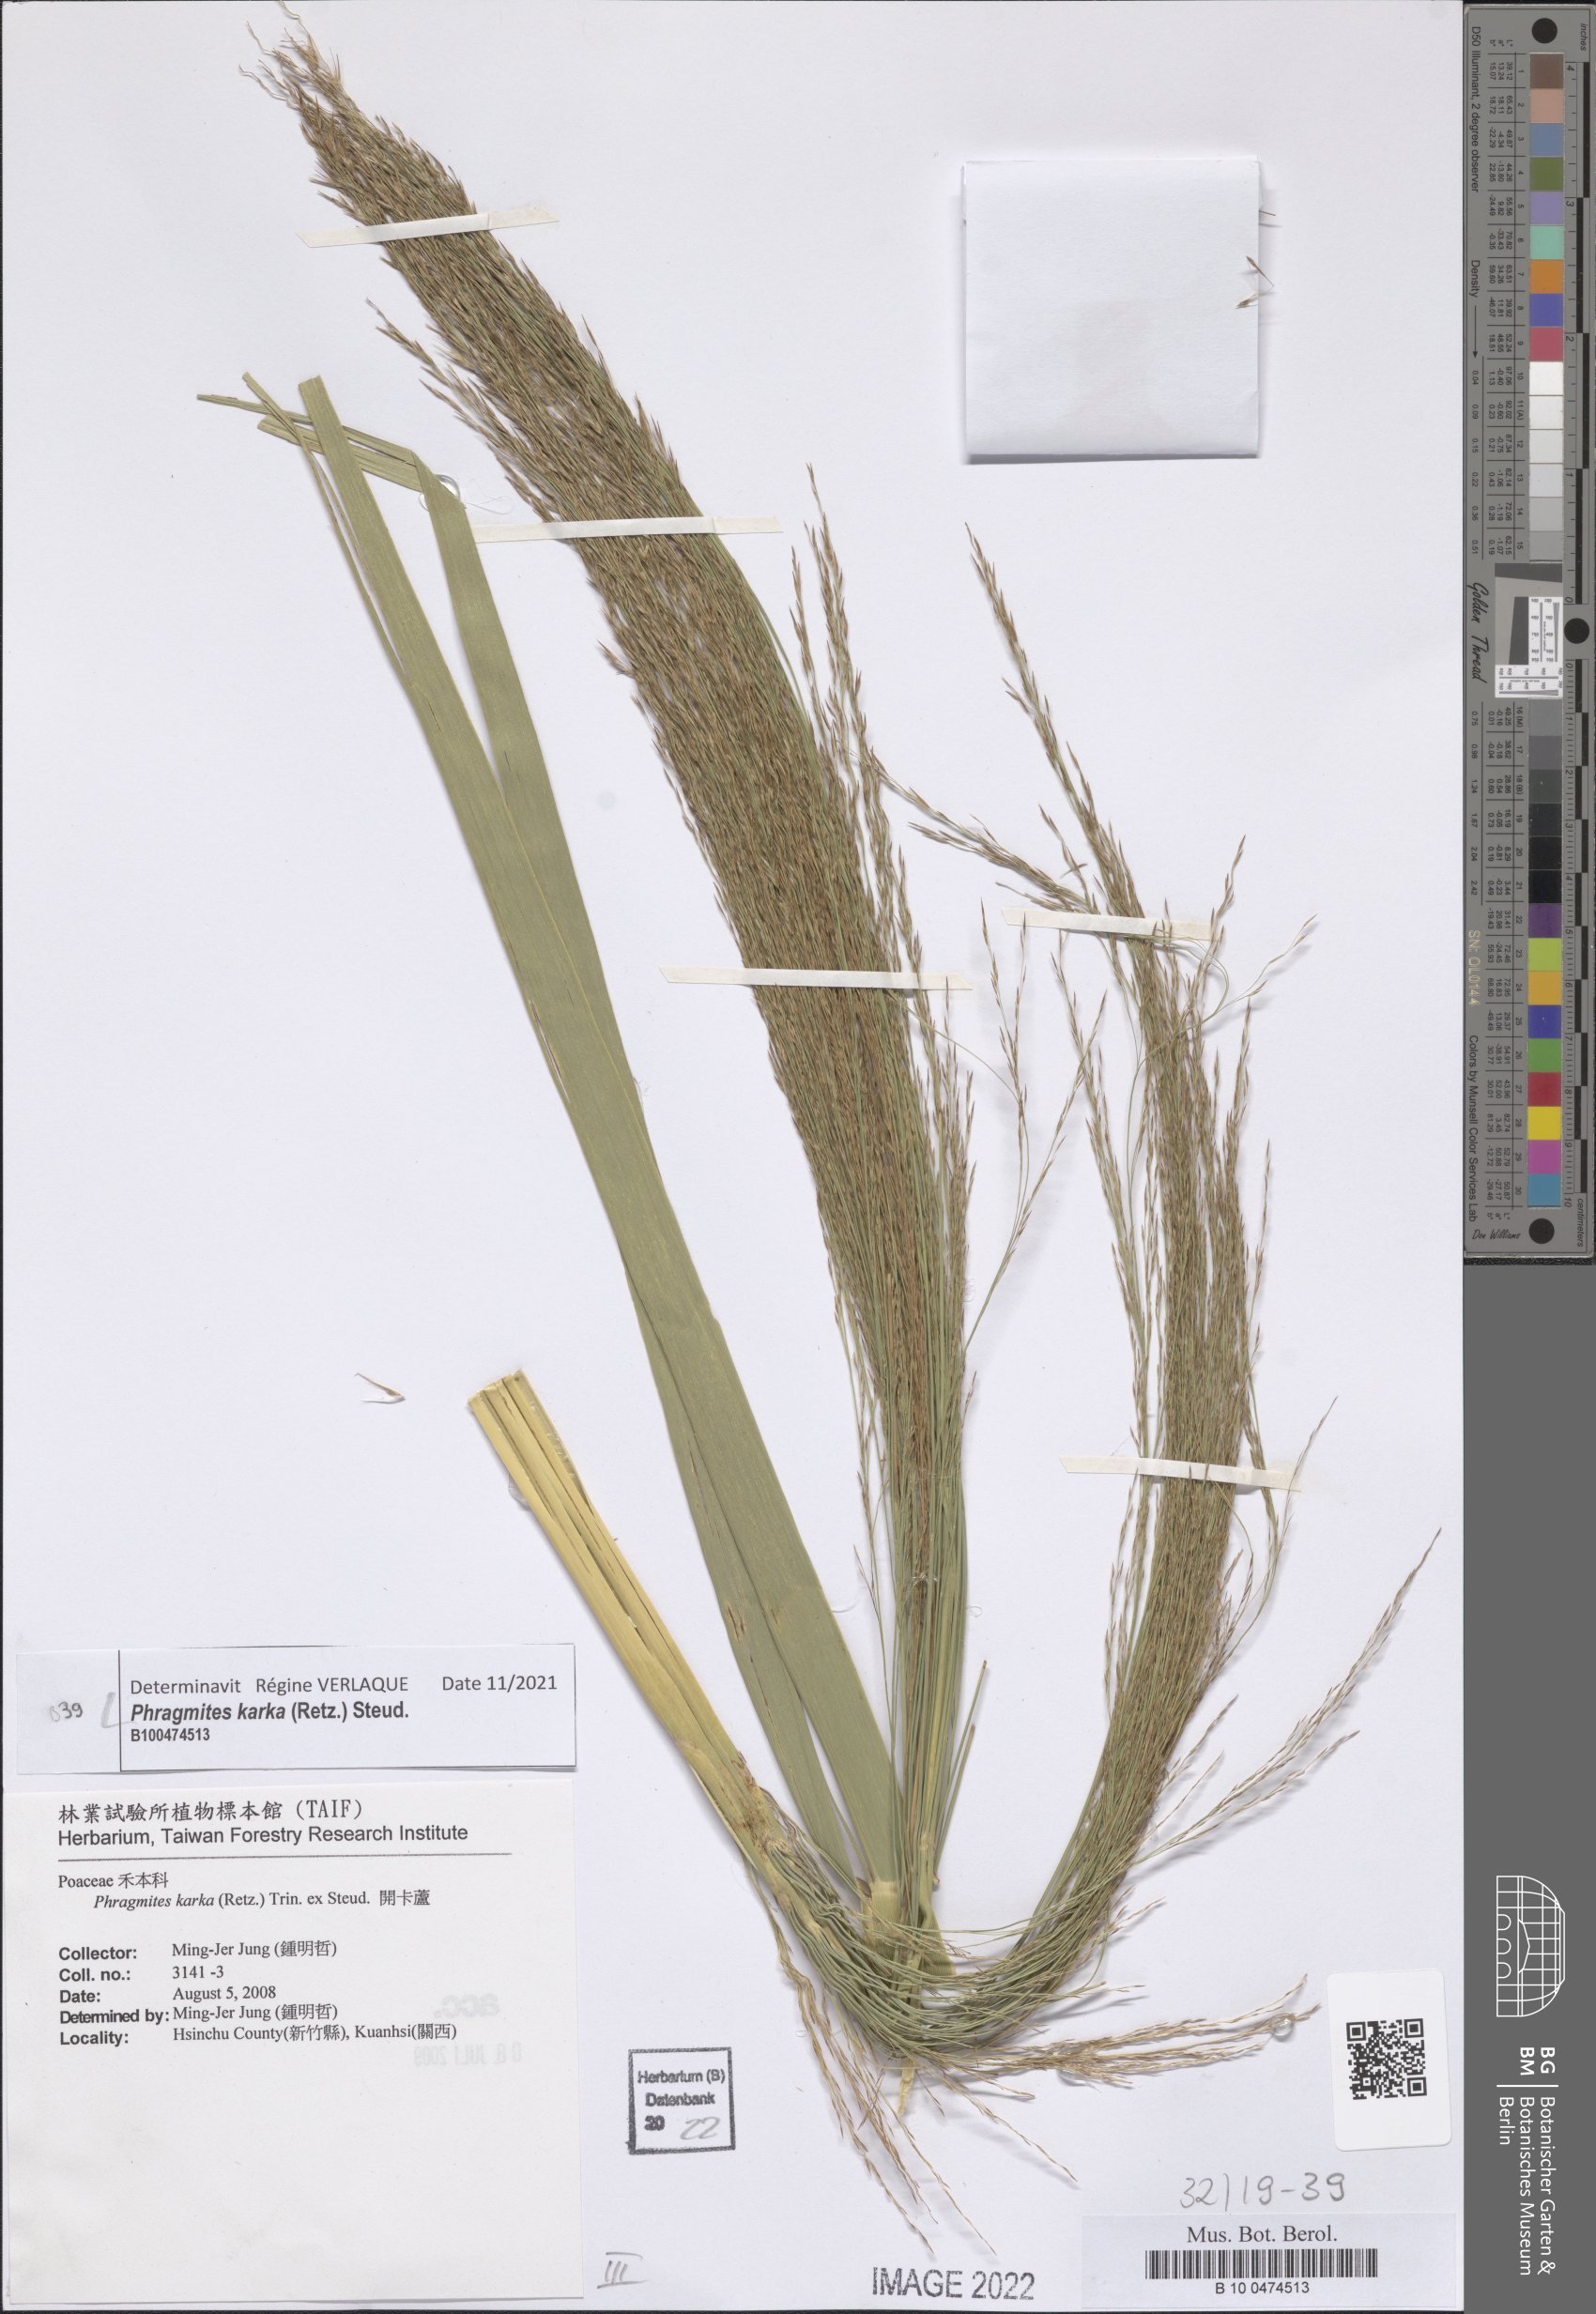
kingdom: Plantae
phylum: Tracheophyta
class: Liliopsida
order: Poales
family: Poaceae
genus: Phragmites
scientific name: Phragmites karka
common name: Tropical reed
